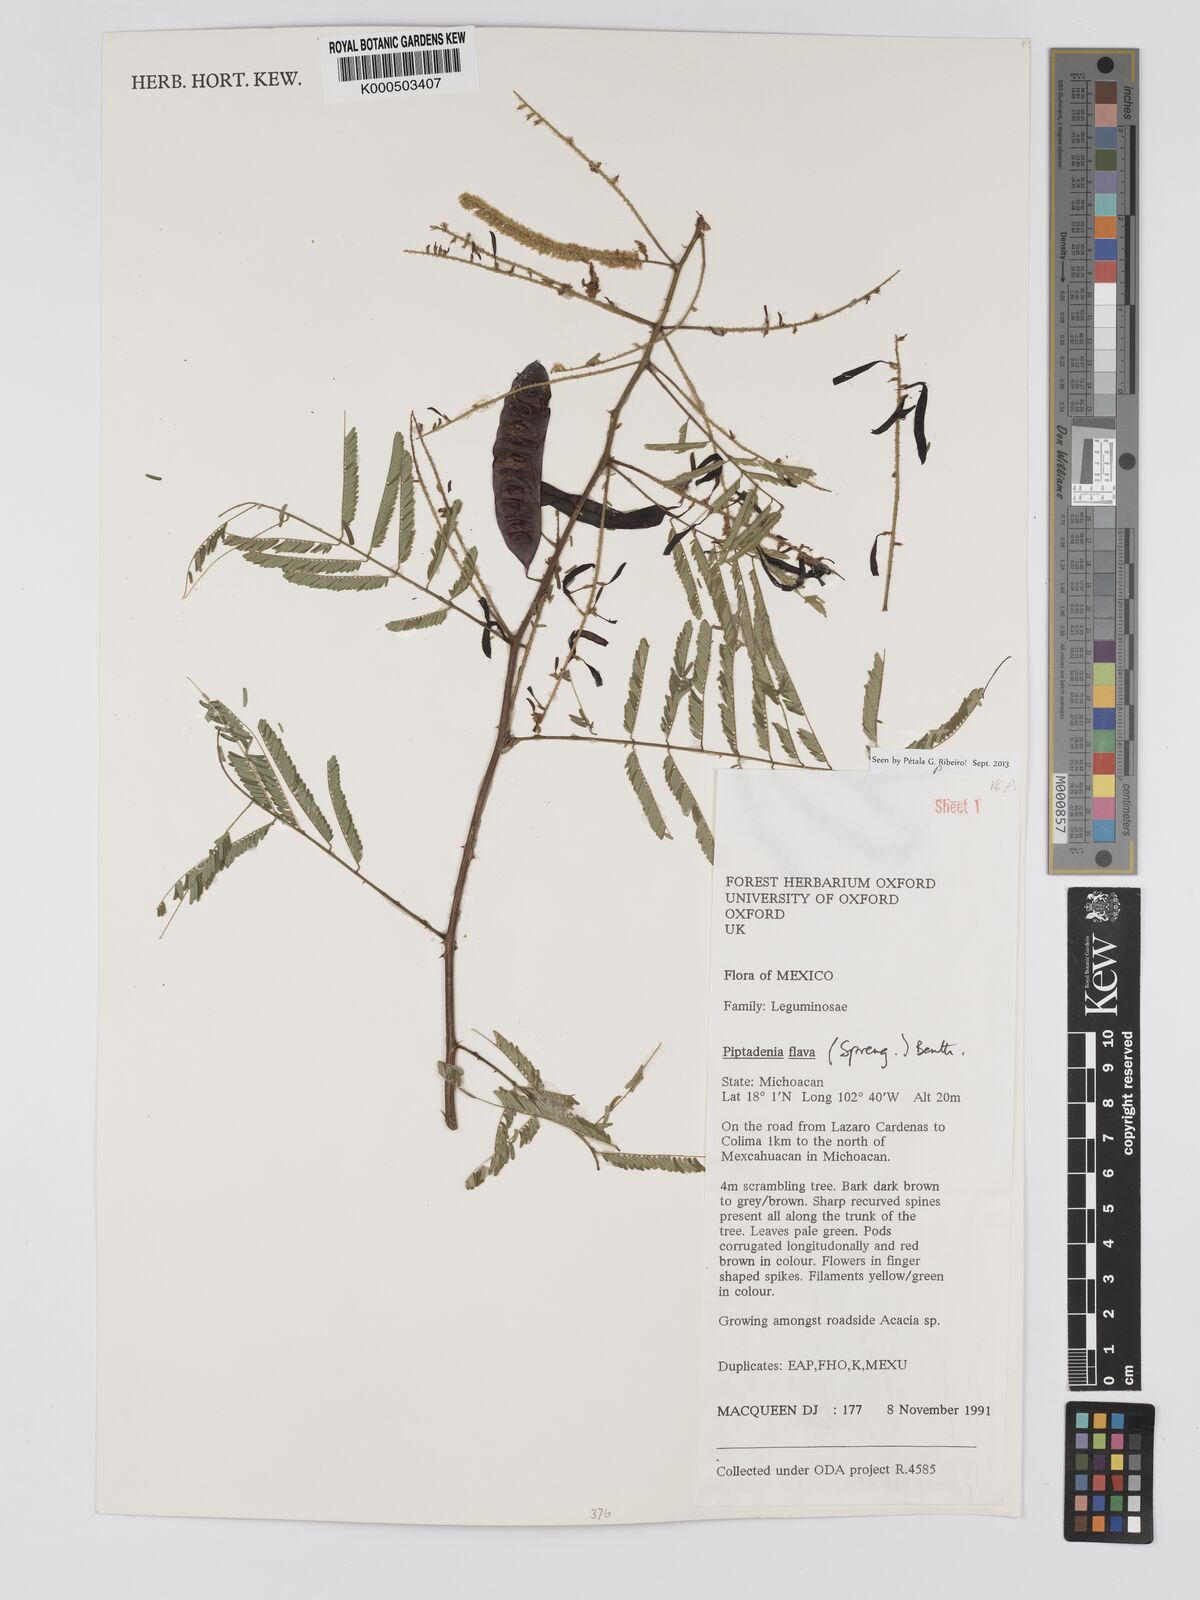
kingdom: Plantae
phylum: Tracheophyta
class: Magnoliopsida
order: Fabales
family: Fabaceae
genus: Piptadenia
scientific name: Piptadenia retusa
